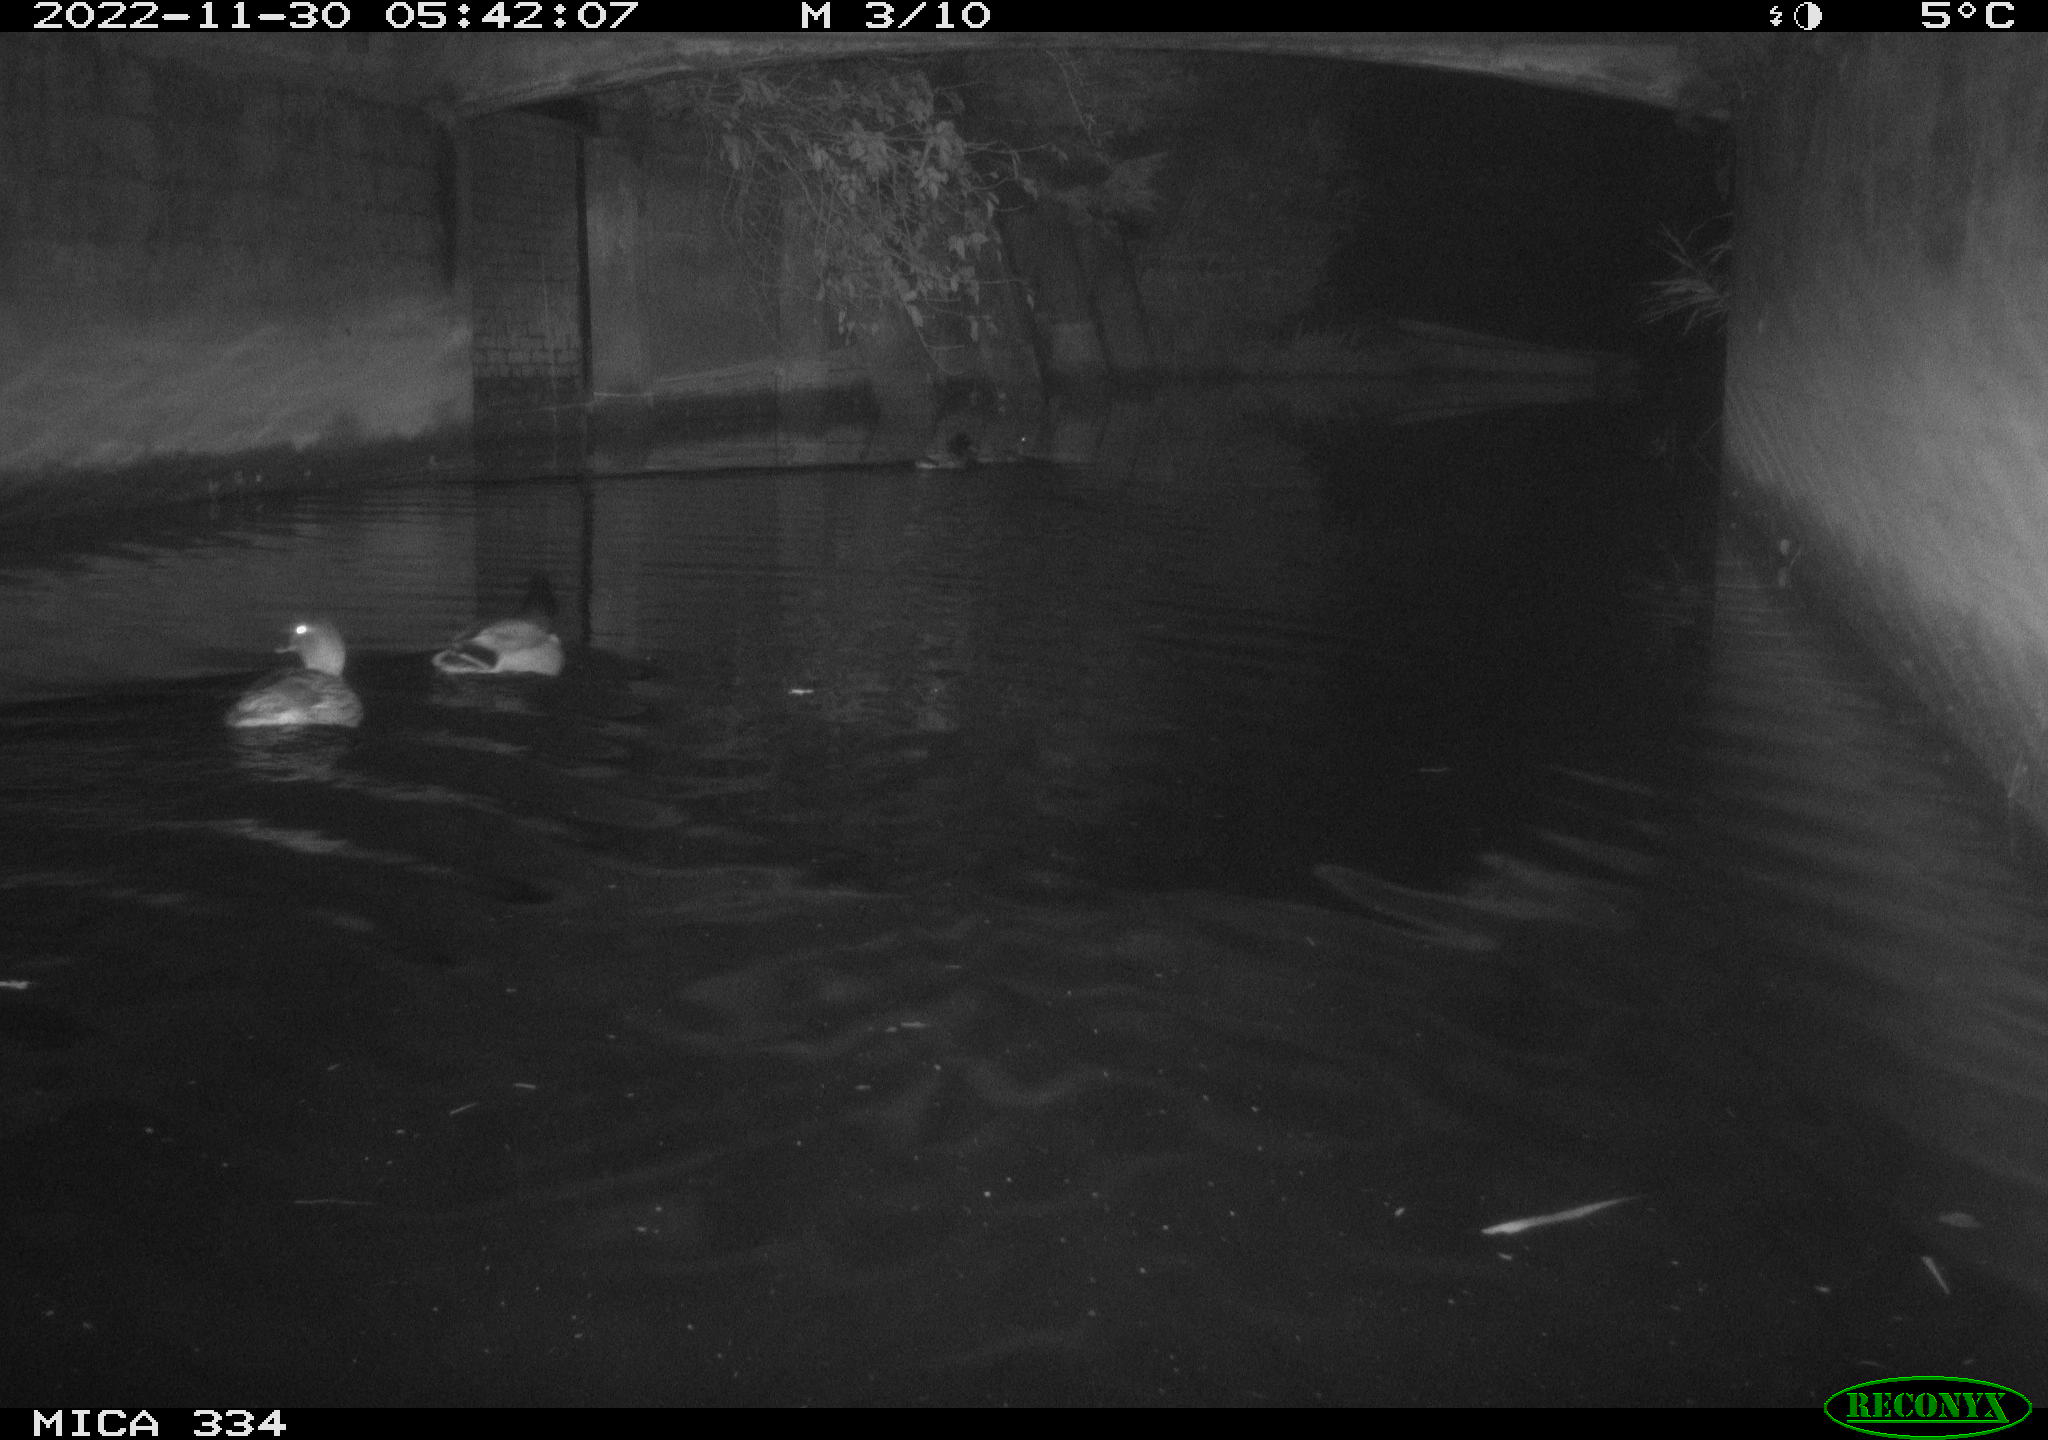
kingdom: Animalia
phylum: Chordata
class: Aves
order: Anseriformes
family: Anatidae
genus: Anas
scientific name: Anas
